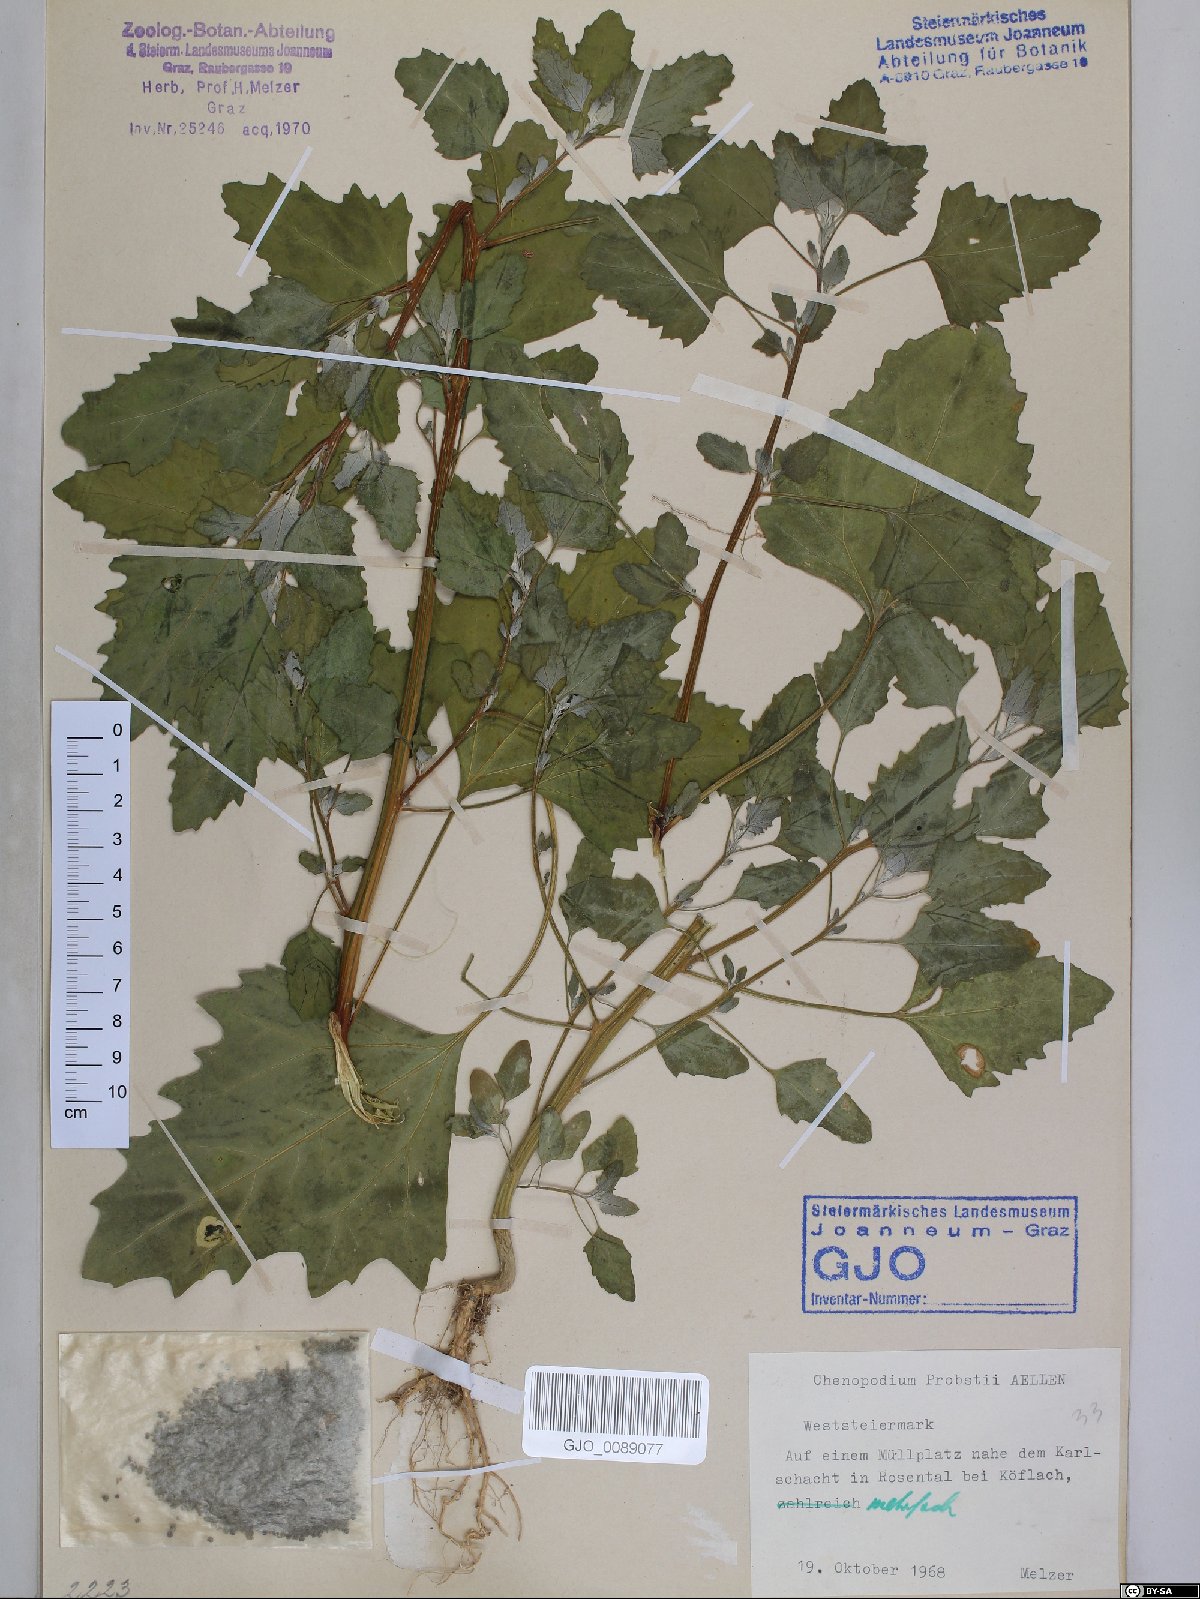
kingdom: Plantae
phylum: Tracheophyta
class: Magnoliopsida
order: Caryophyllales
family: Amaranthaceae
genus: Chenopodium
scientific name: Chenopodium probstii
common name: Probst's goosefoot
